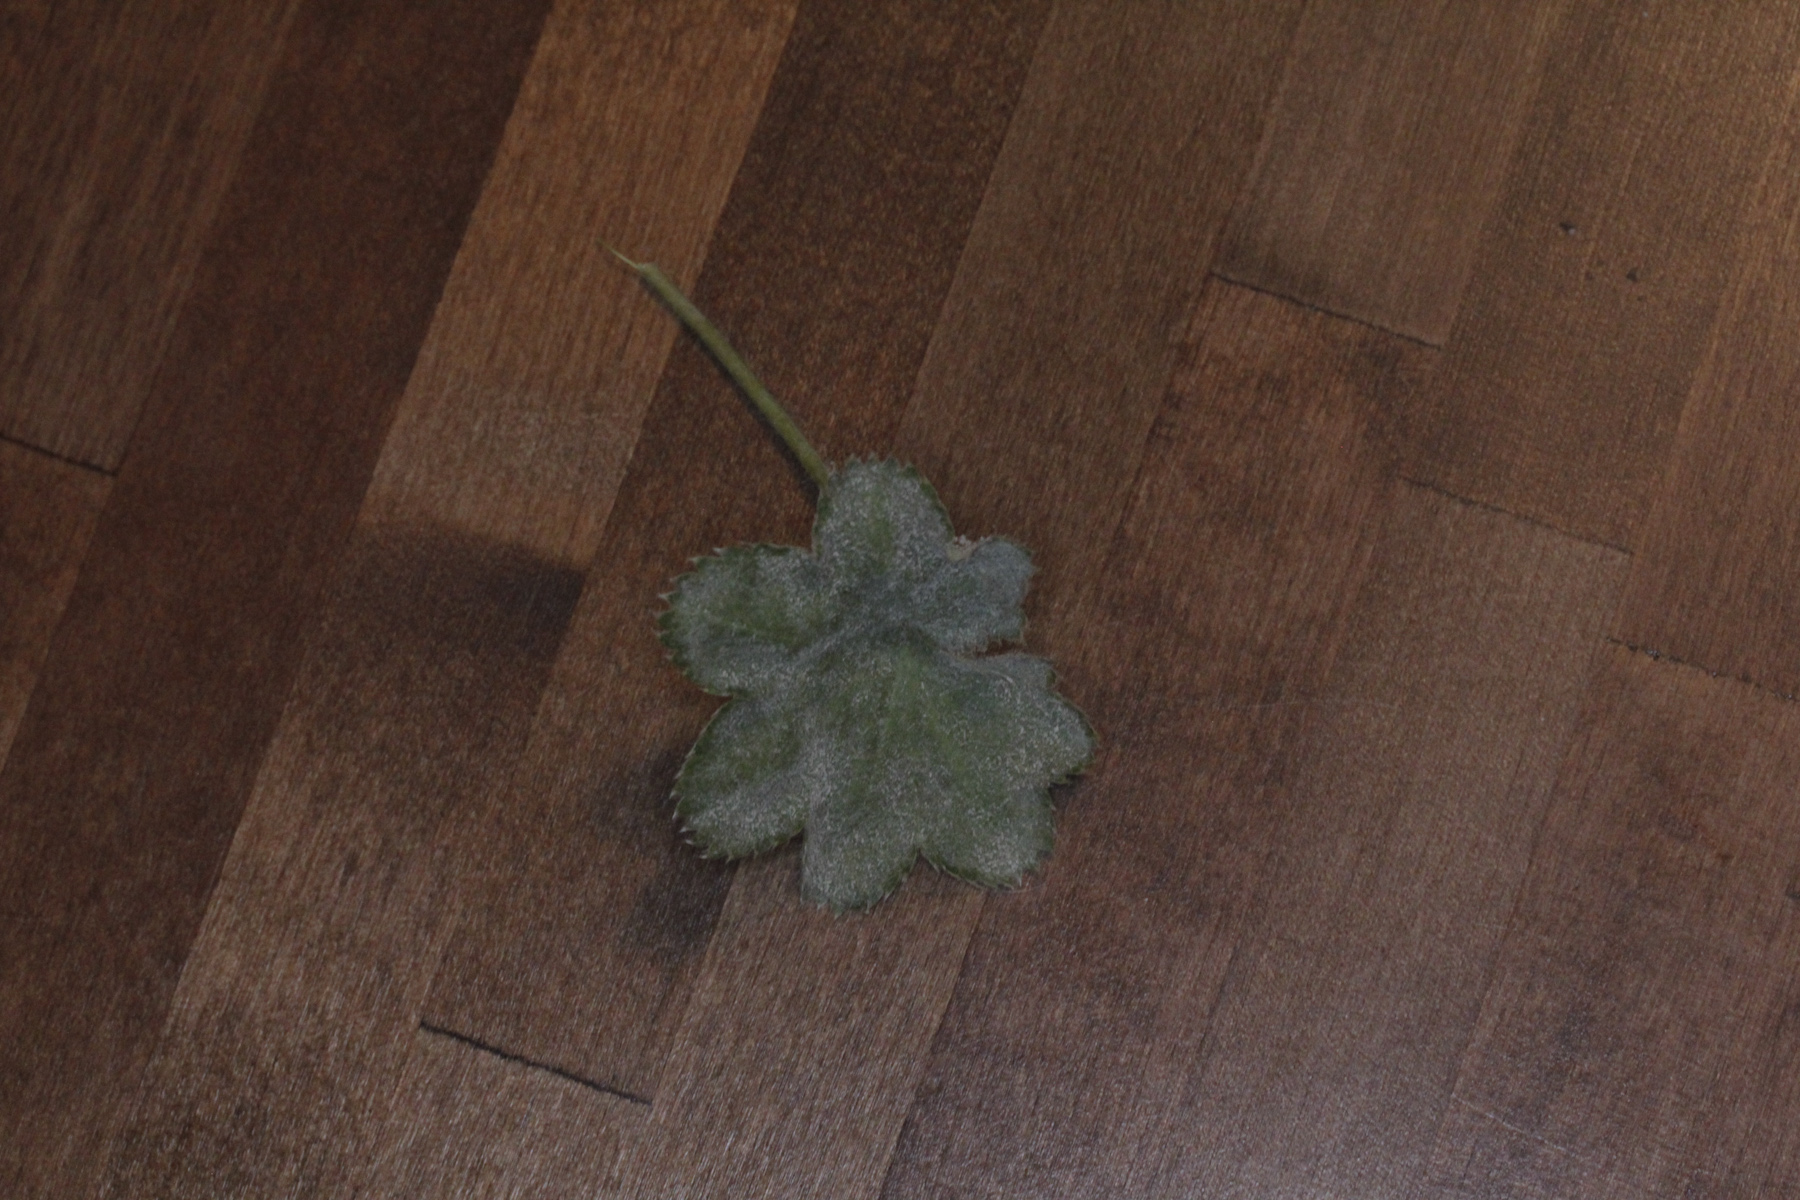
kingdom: Fungi
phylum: Ascomycota
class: Leotiomycetes
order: Helotiales
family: Erysiphaceae
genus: Podosphaera
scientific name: Podosphaera aphanis
